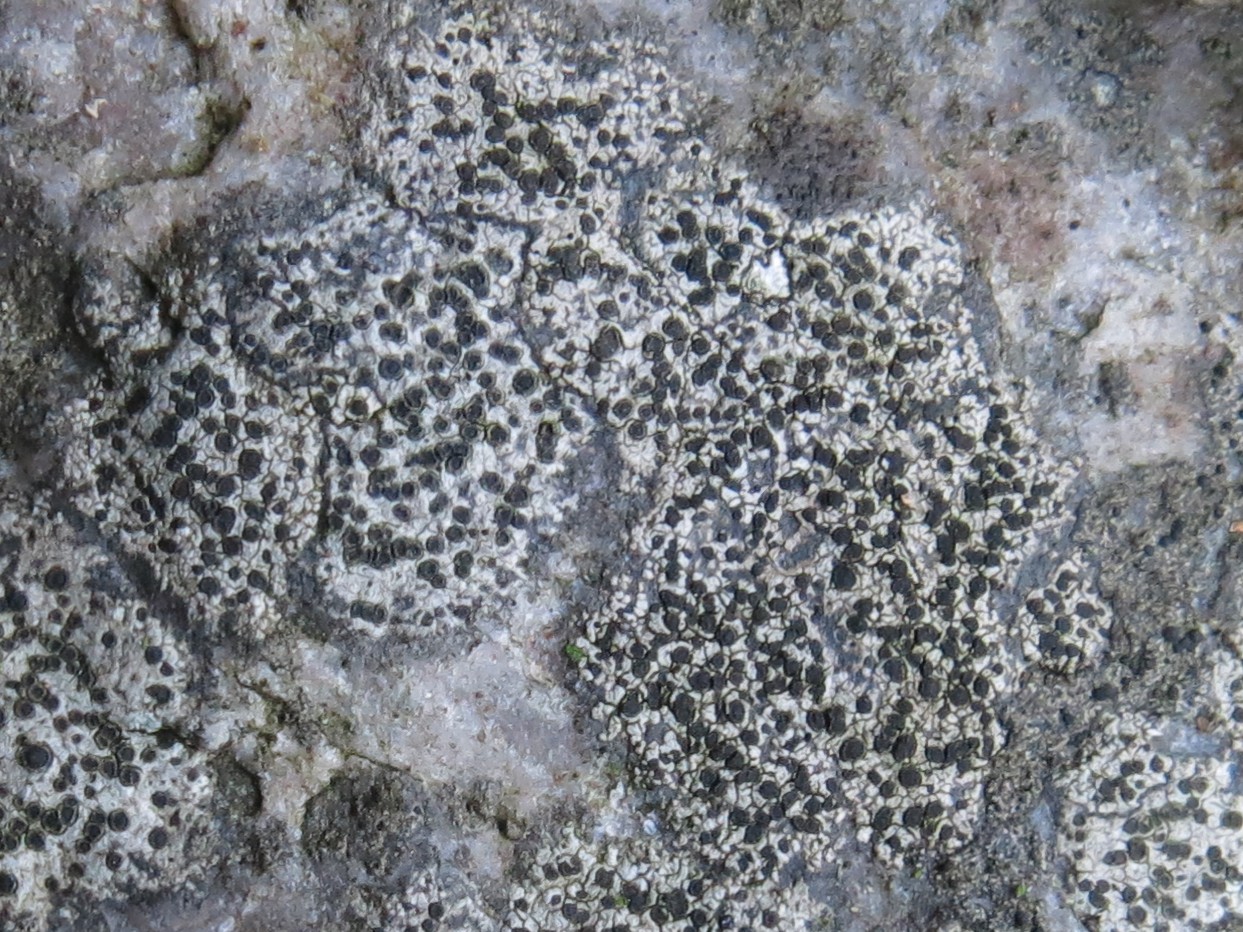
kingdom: Fungi
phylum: Ascomycota
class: Lecanoromycetes
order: Rhizocarpales
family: Rhizocarpaceae
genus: Rhizocarpon
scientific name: Rhizocarpon reductum
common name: mørk landkortlav
